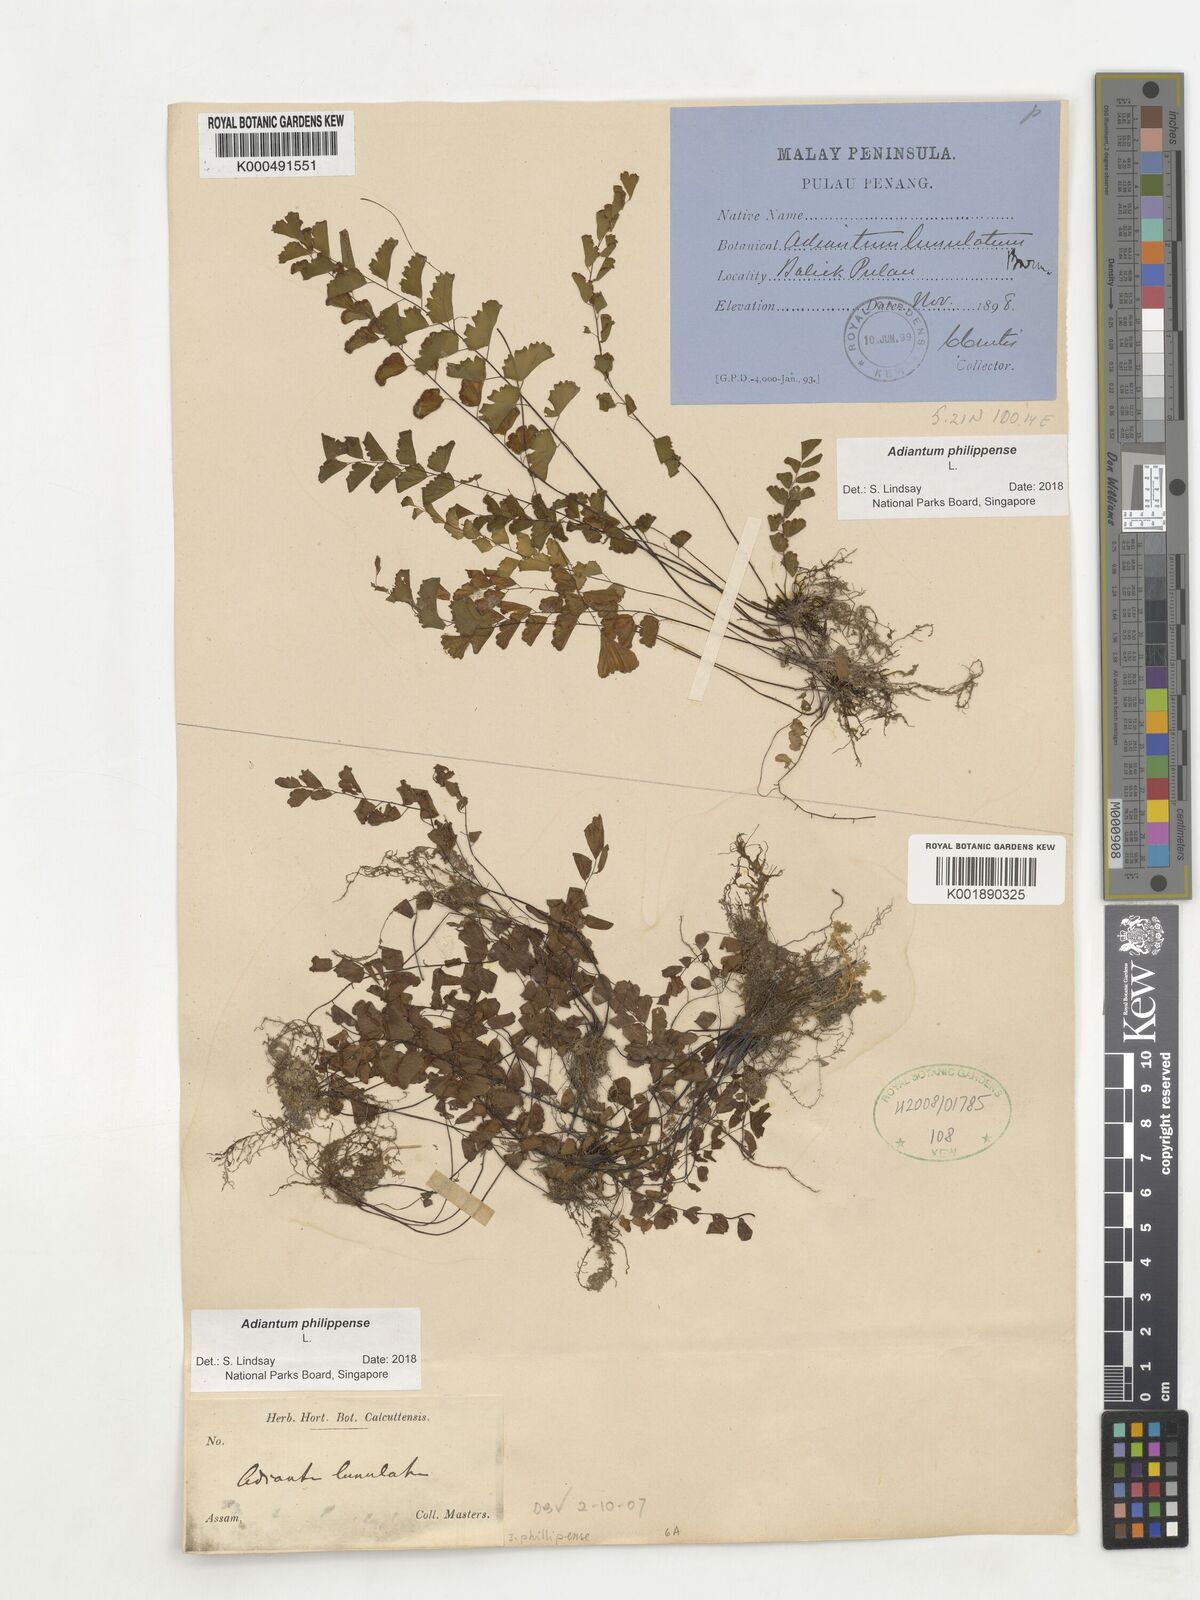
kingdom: Plantae
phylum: Tracheophyta
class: Polypodiopsida
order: Polypodiales
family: Pteridaceae
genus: Adiantum
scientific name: Adiantum philippense
